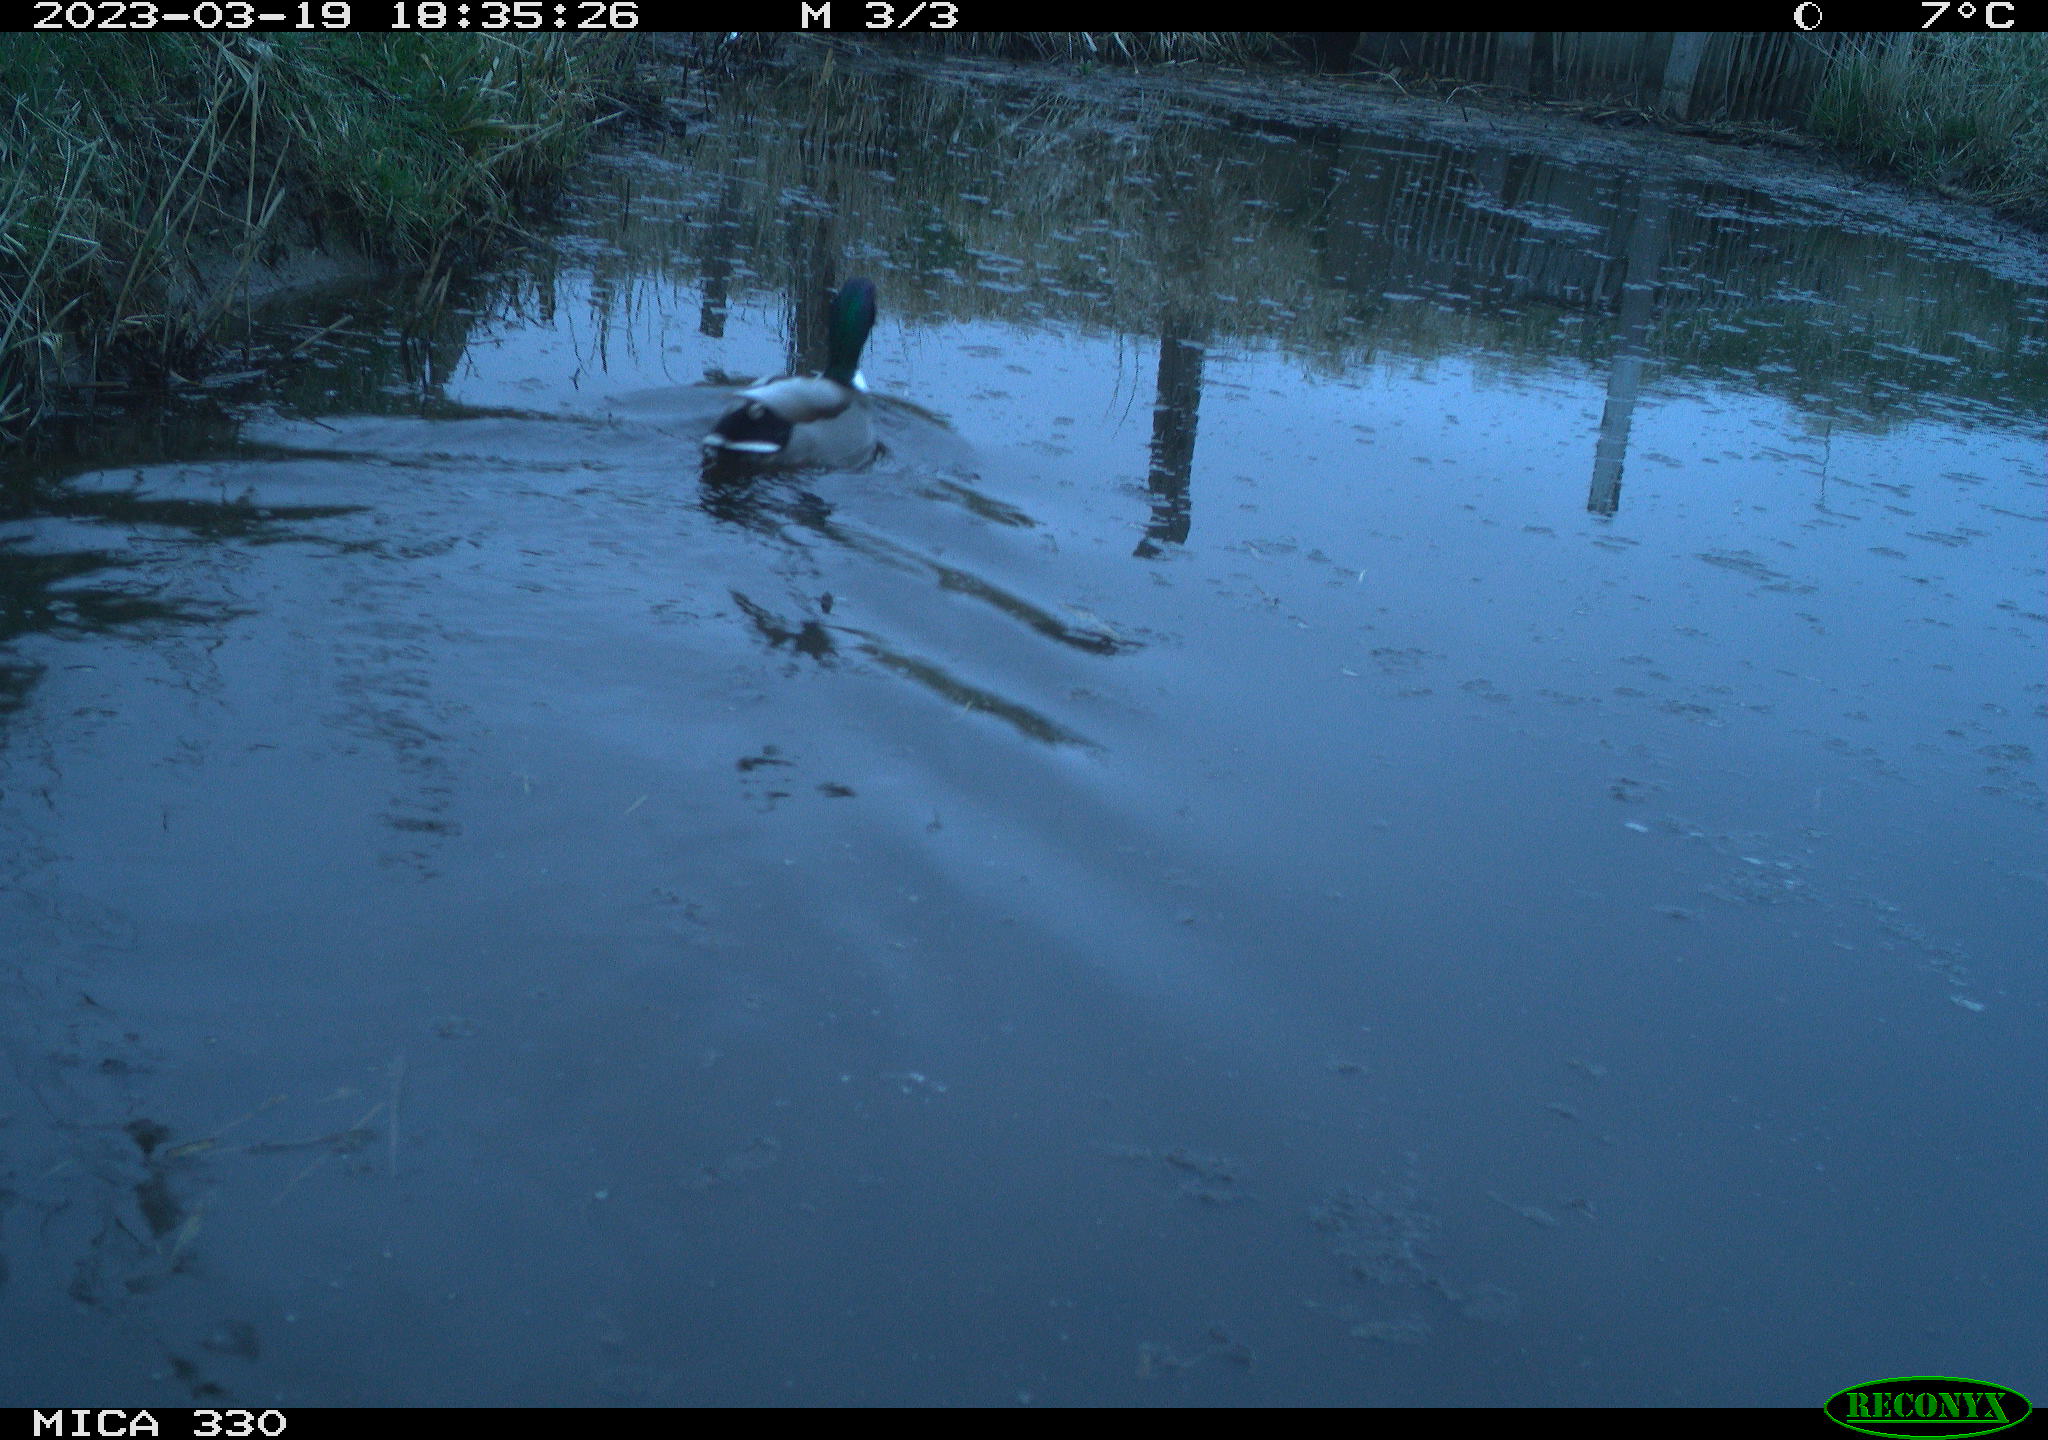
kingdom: Animalia
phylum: Chordata
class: Aves
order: Anseriformes
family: Anatidae
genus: Anas
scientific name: Anas
